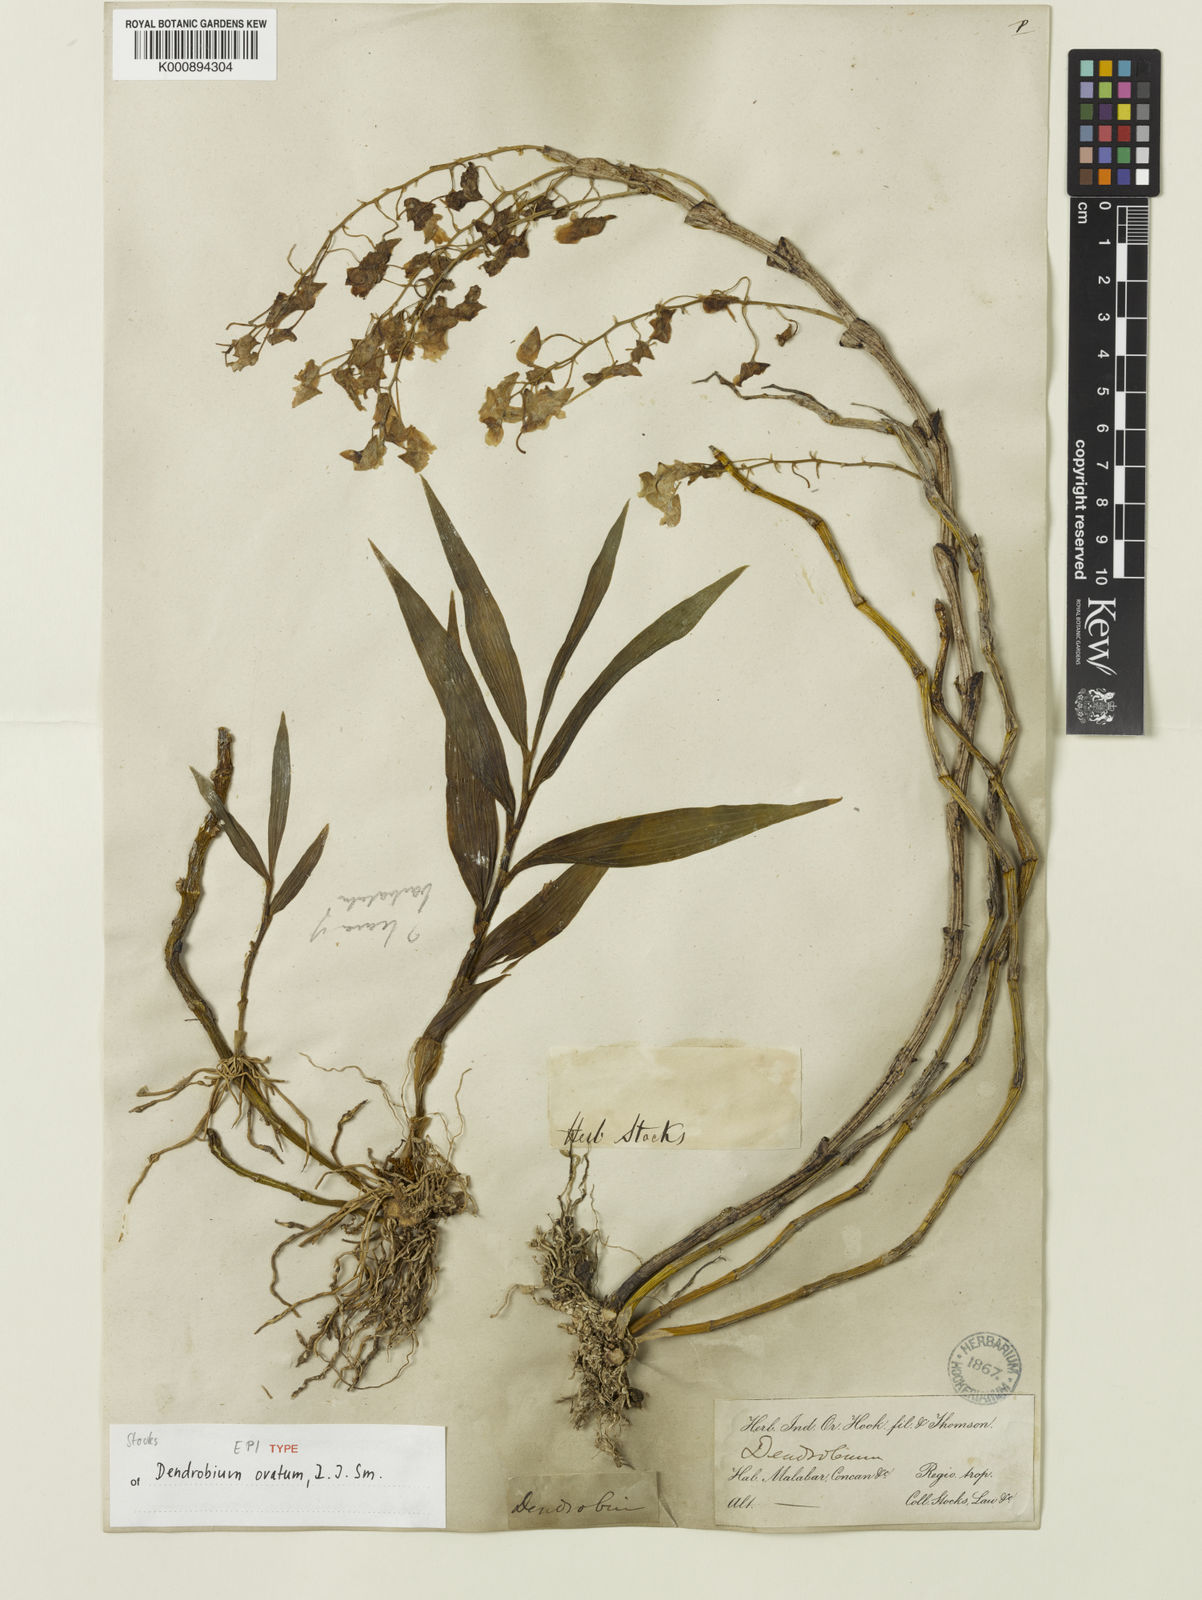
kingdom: Plantae
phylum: Tracheophyta
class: Liliopsida
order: Asparagales
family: Orchidaceae
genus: Dendrobium
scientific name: Dendrobium ovatum
